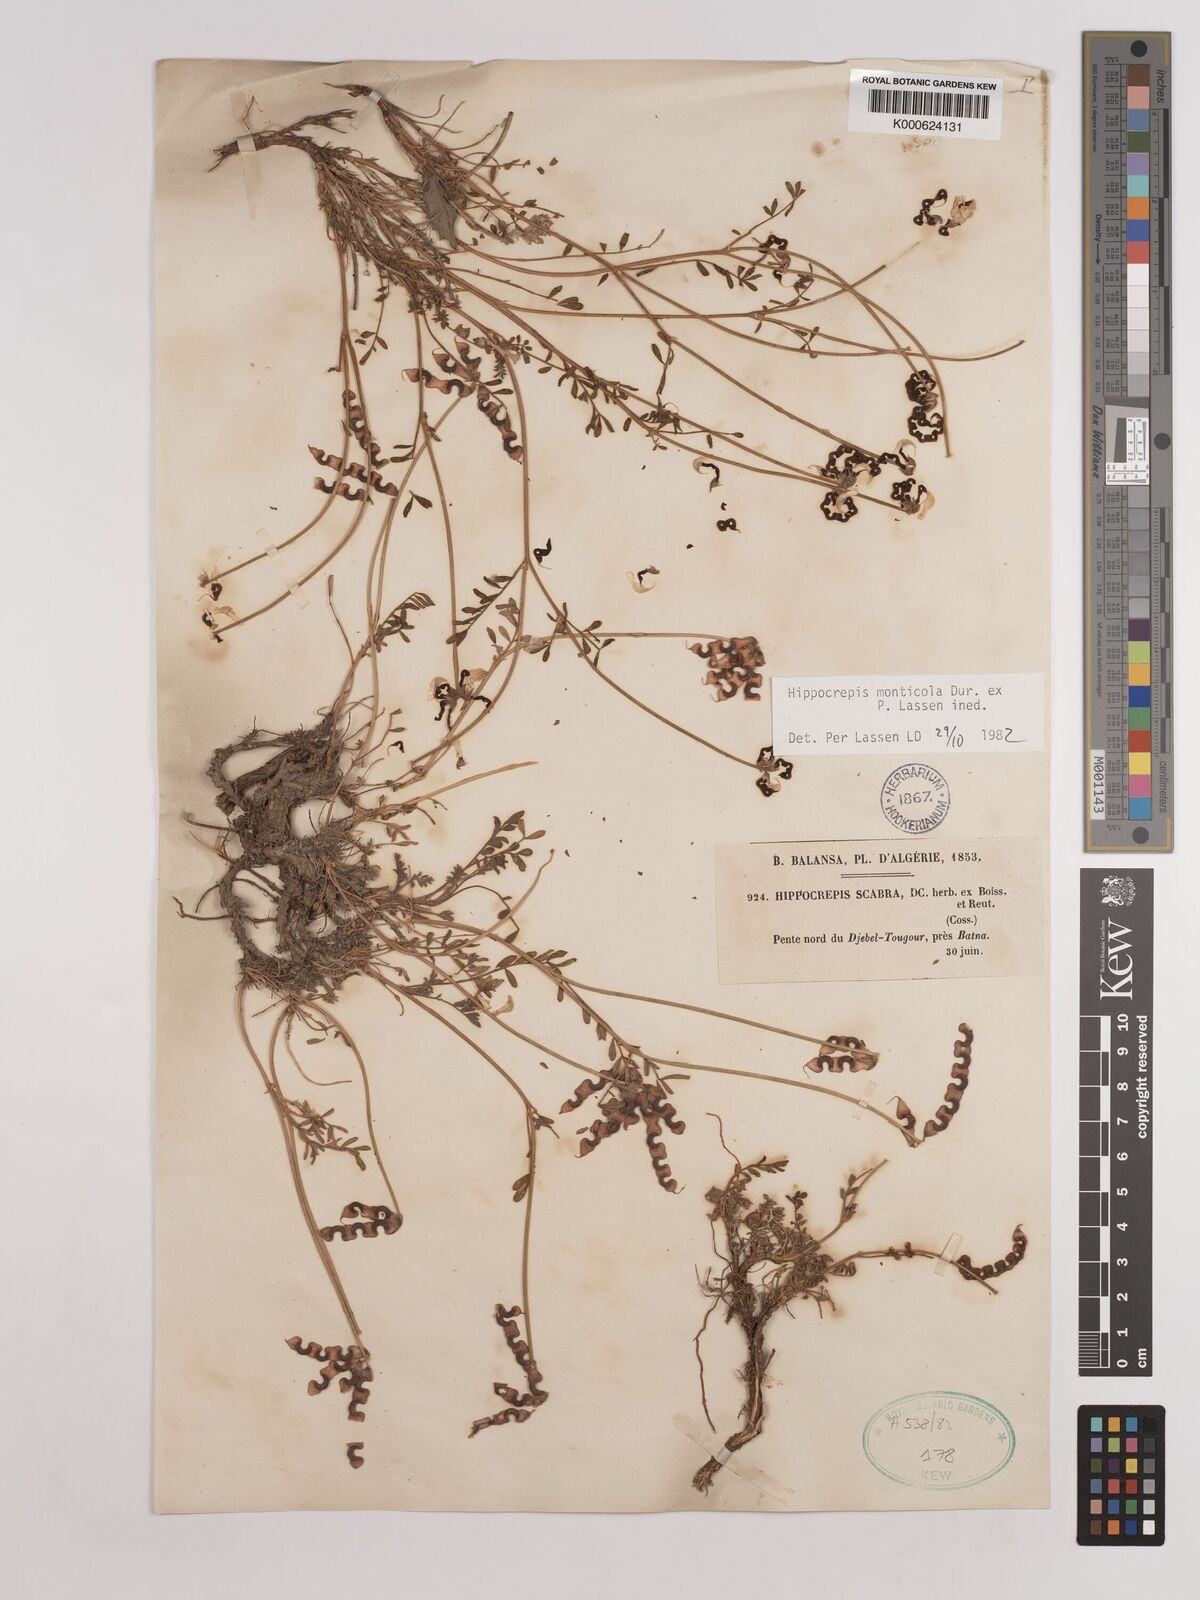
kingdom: Plantae
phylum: Tracheophyta
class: Magnoliopsida
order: Fabales
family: Fabaceae
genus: Hippocrepis
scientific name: Hippocrepis monticola
